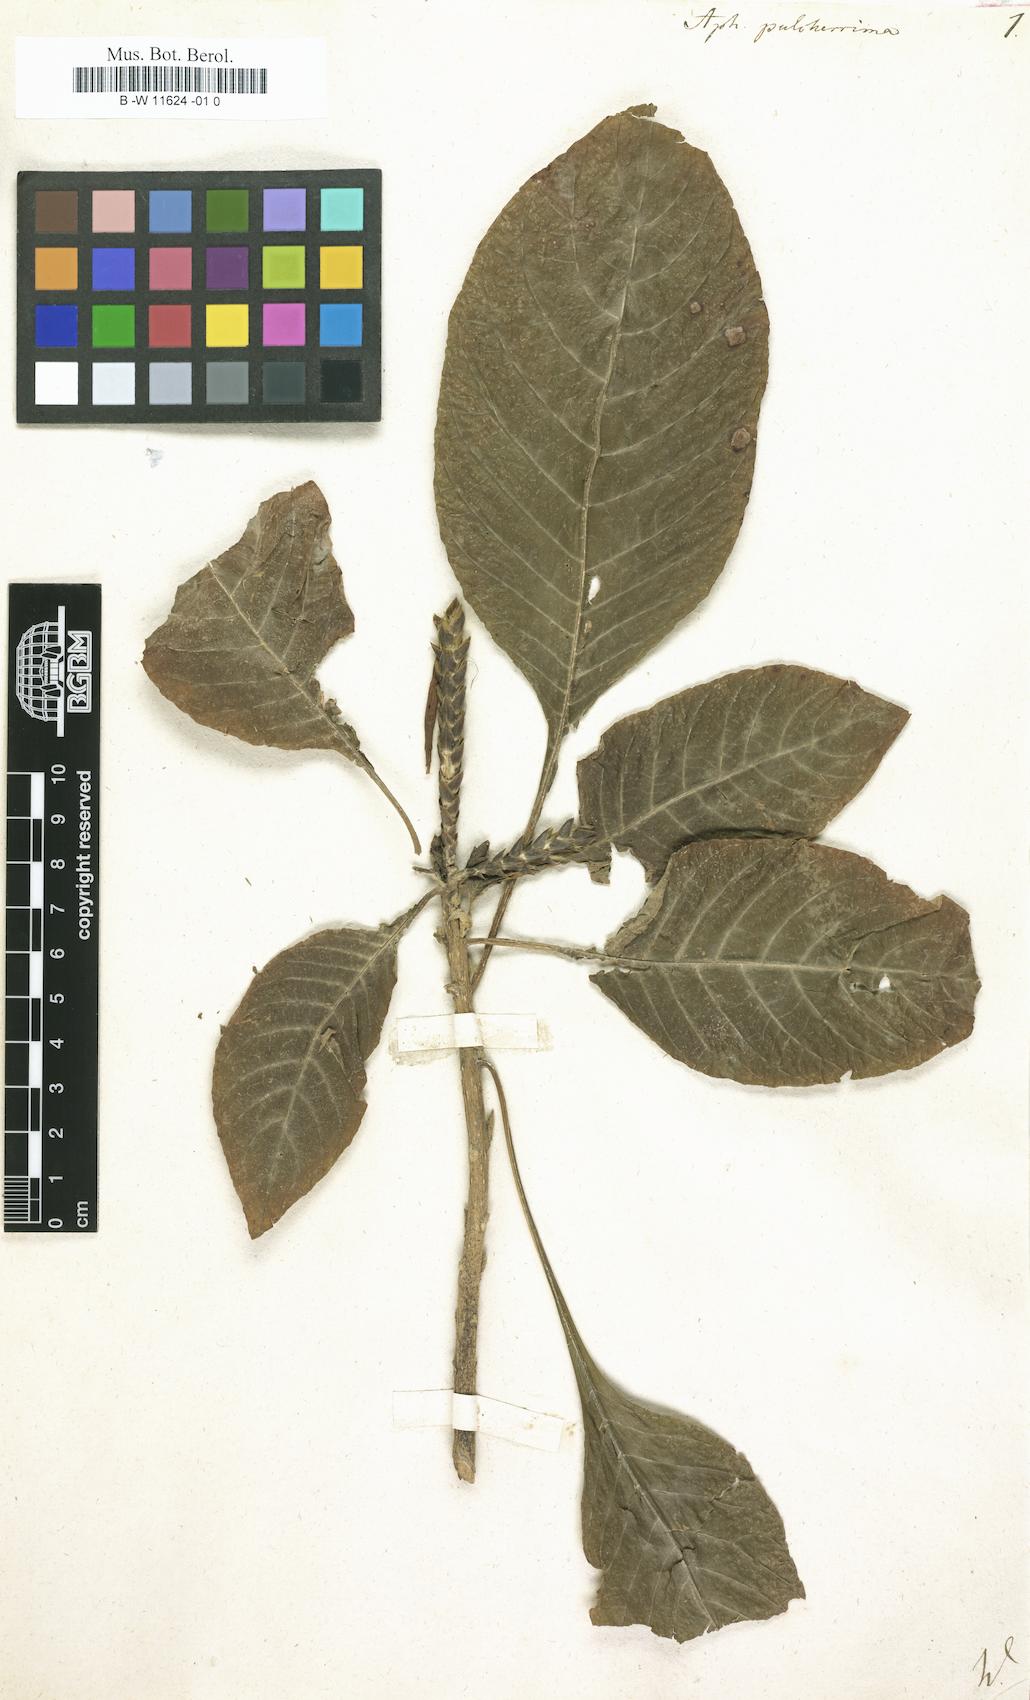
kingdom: Plantae
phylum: Tracheophyta
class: Magnoliopsida
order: Lamiales
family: Acanthaceae
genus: Aphelandra
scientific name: Aphelandra pulcherrima
